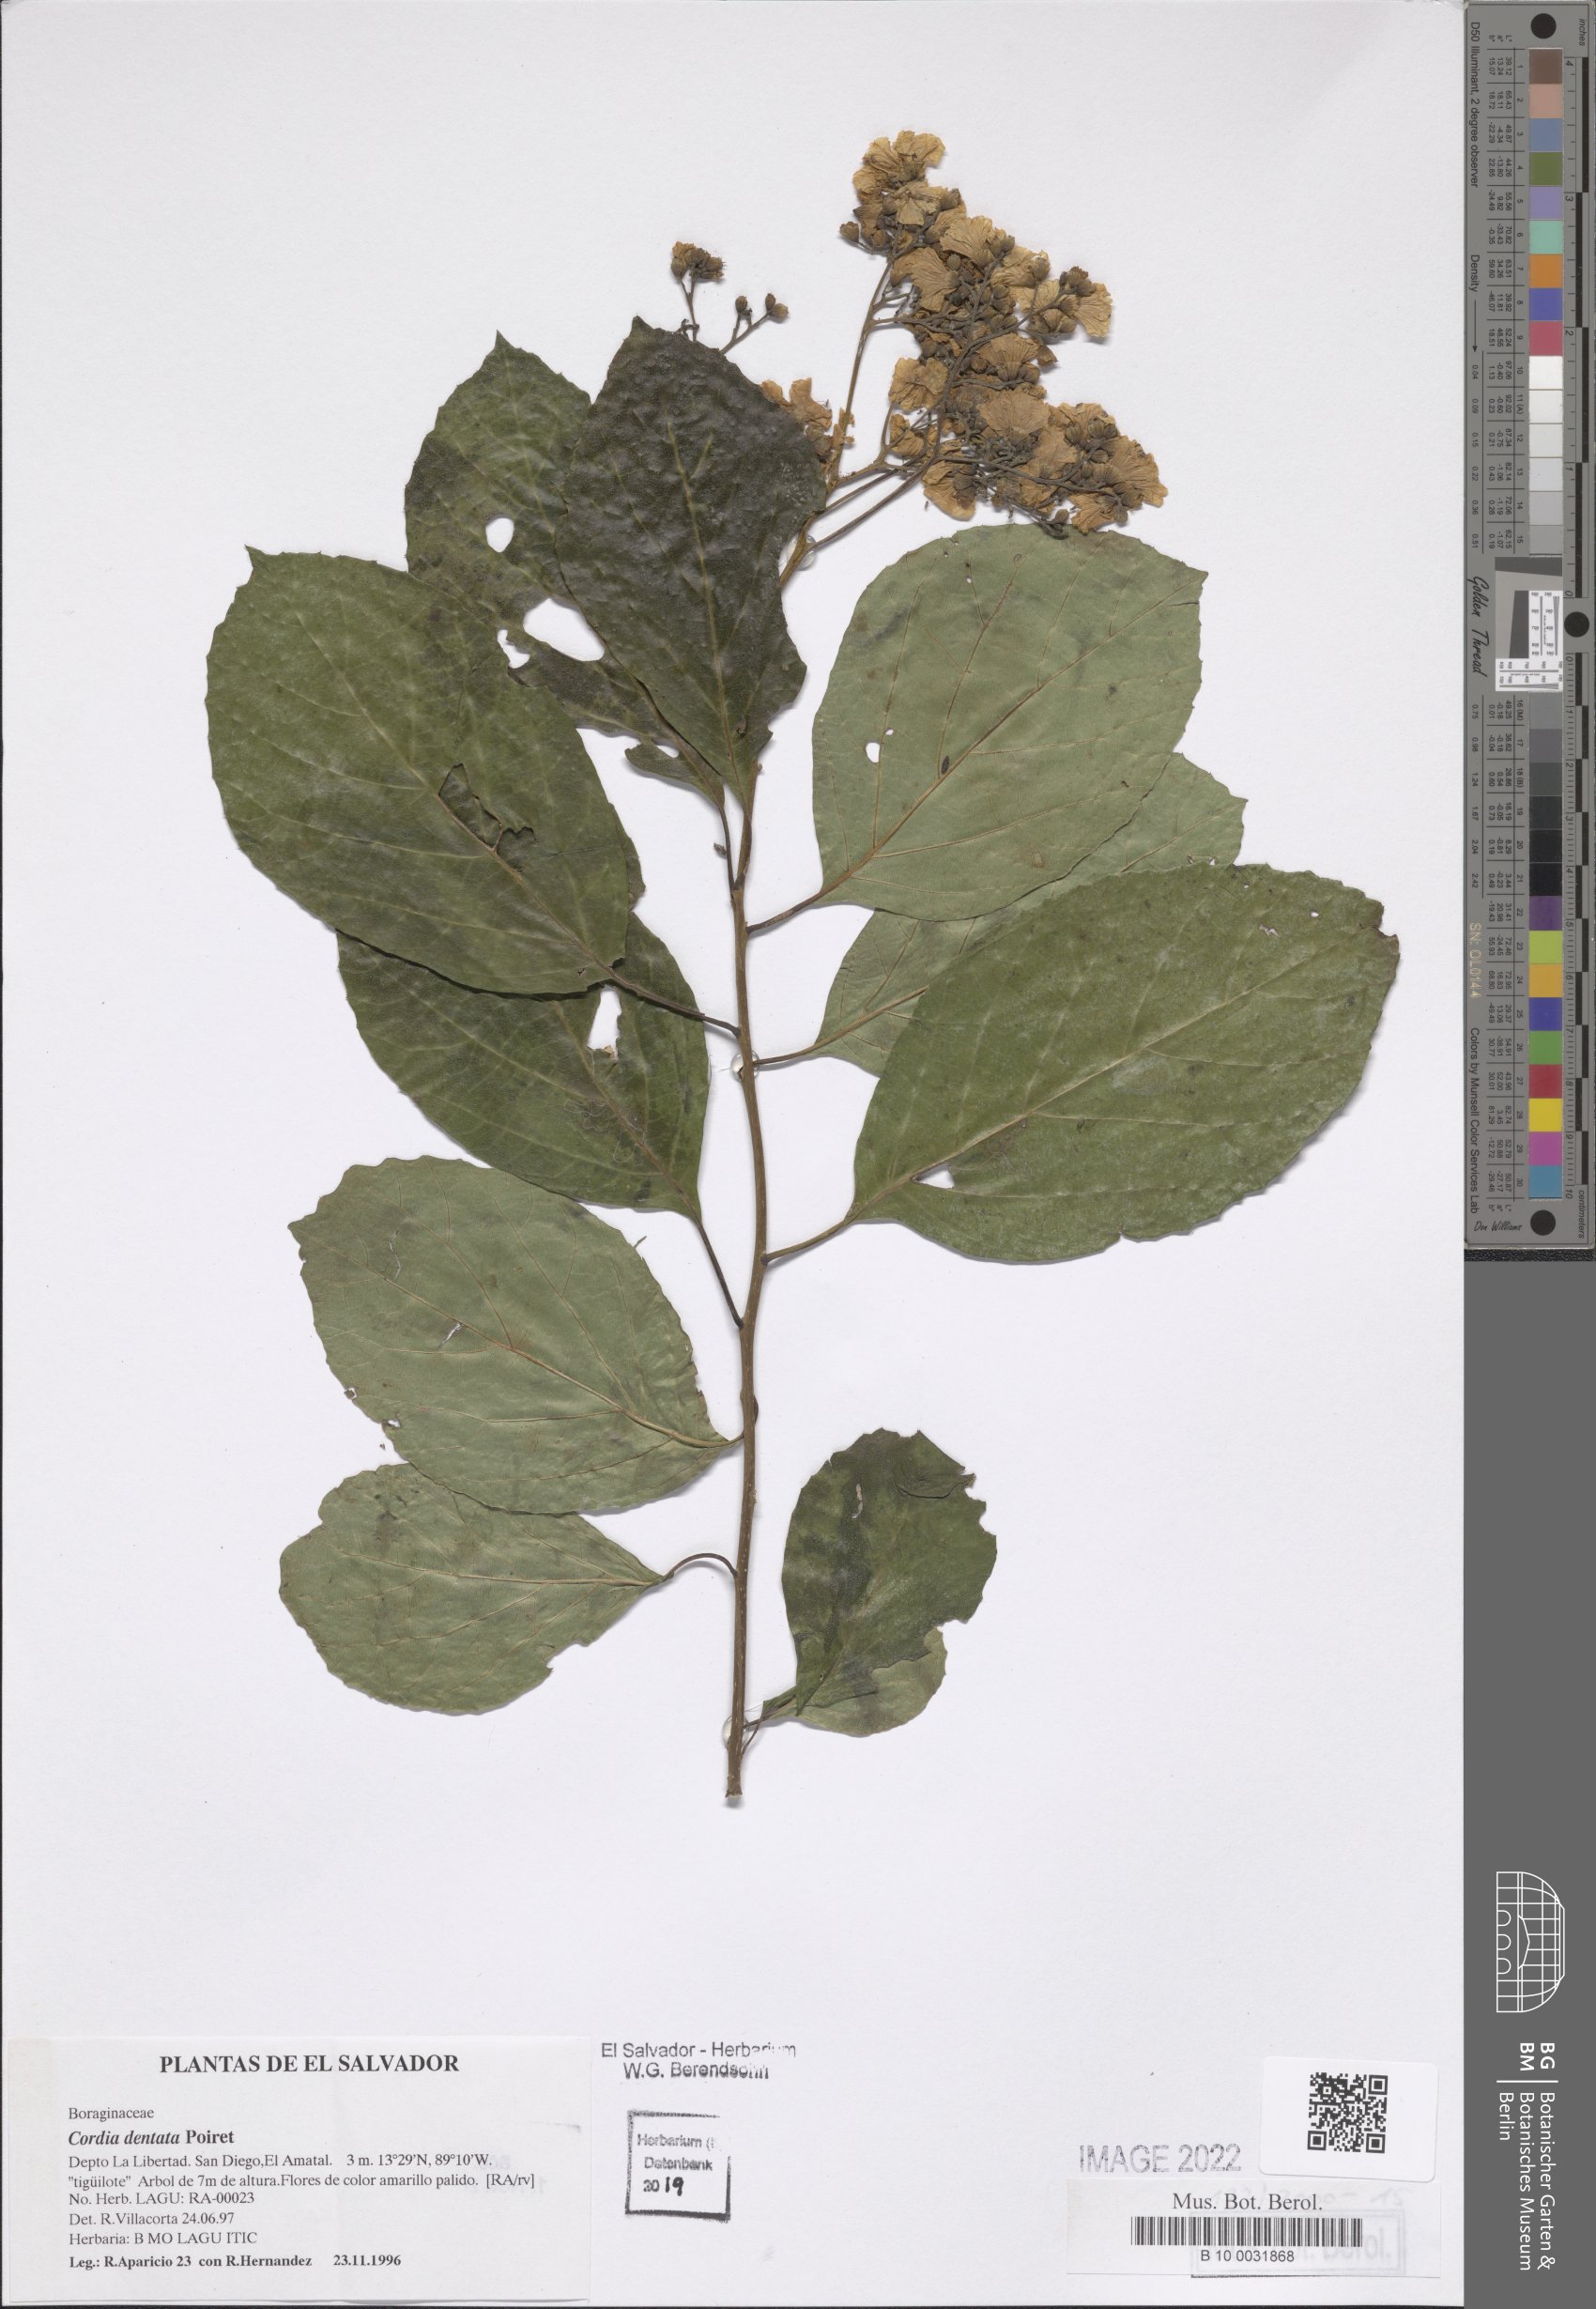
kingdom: Plantae
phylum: Tracheophyta
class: Magnoliopsida
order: Boraginales
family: Cordiaceae
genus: Cordia
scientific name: Cordia dentata
